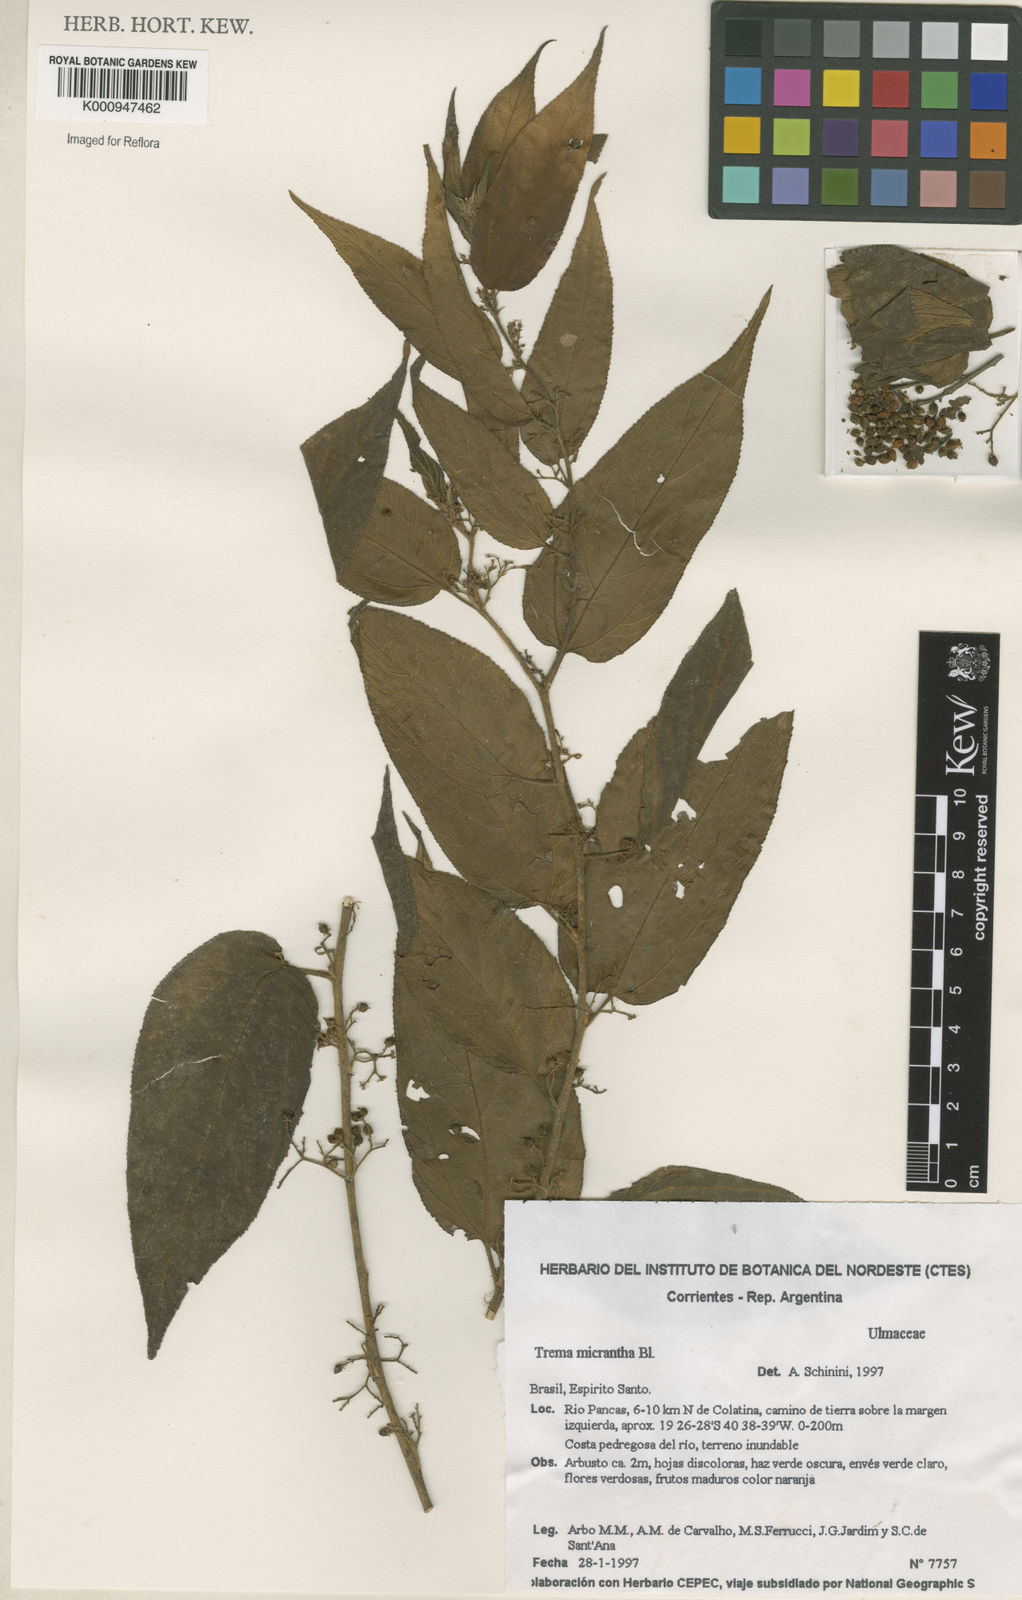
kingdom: Plantae
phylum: Tracheophyta
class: Magnoliopsida
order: Rosales
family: Cannabaceae
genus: Trema
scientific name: Trema micranthum
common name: Jamaican nettletree
